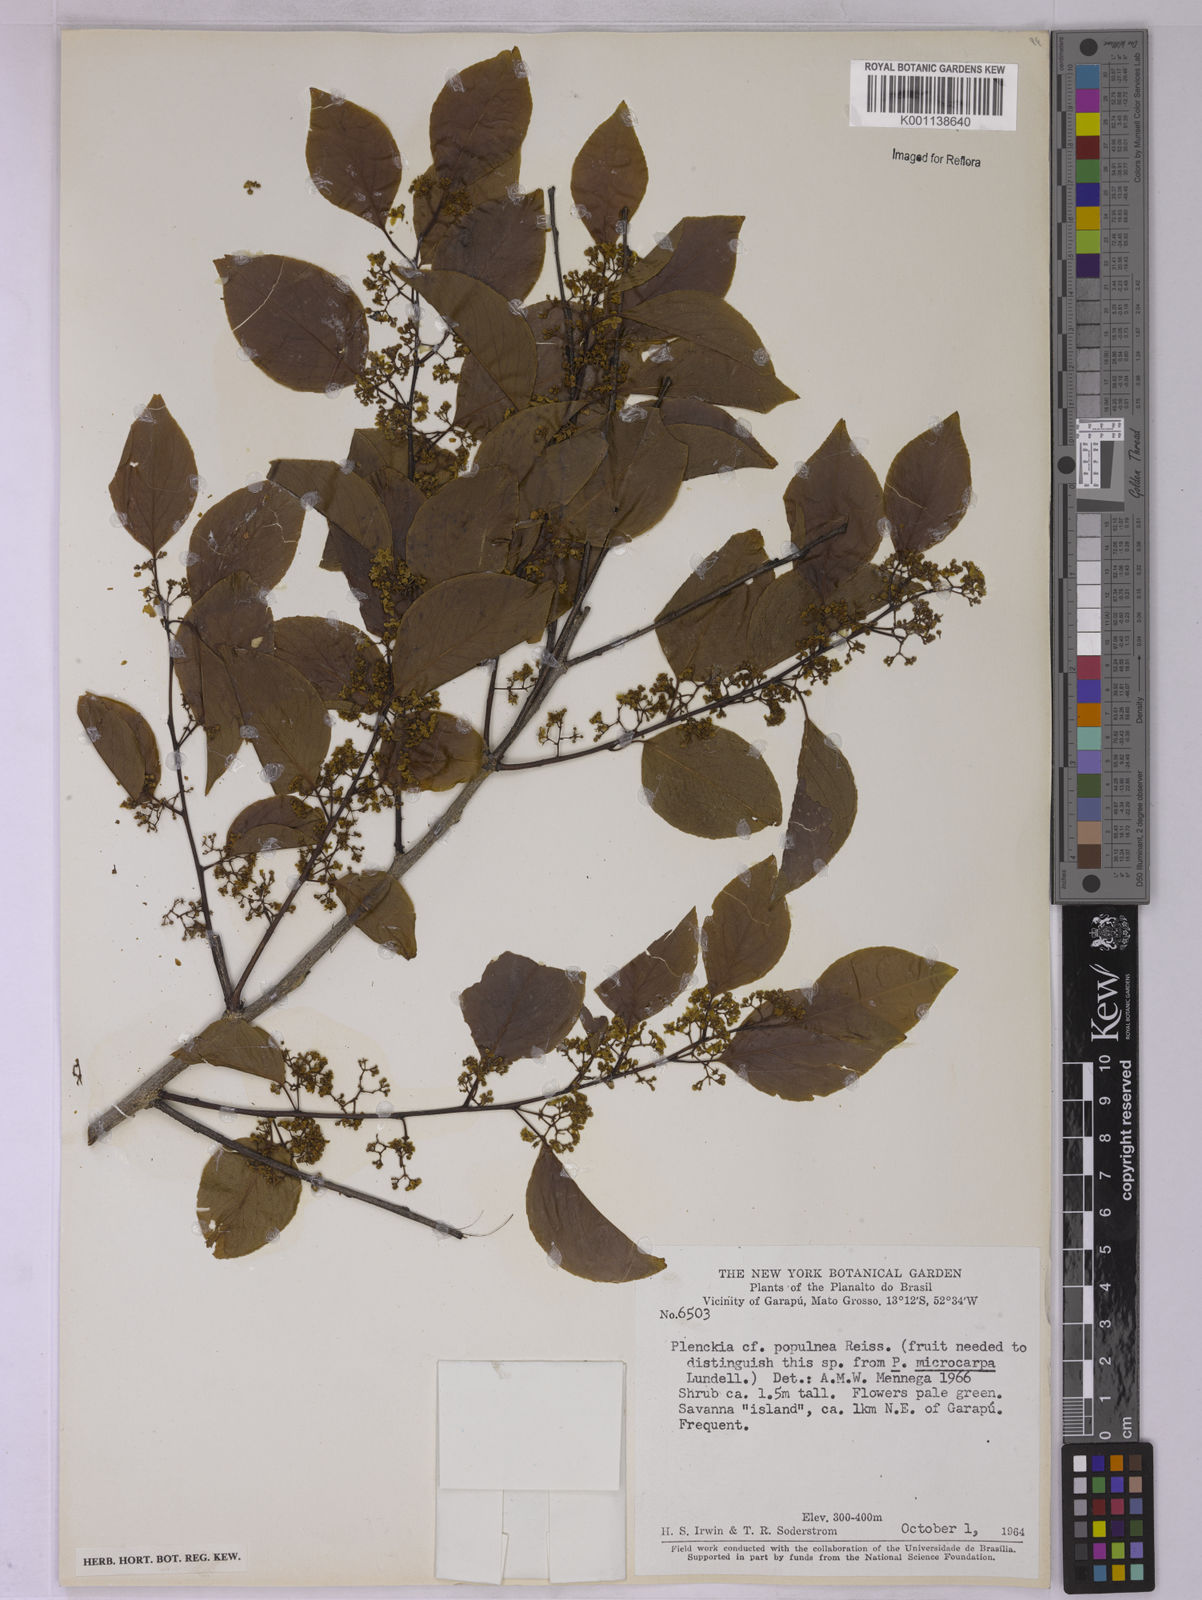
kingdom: Plantae
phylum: Tracheophyta
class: Magnoliopsida
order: Celastrales
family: Celastraceae
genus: Plenckia
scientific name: Plenckia populnea
